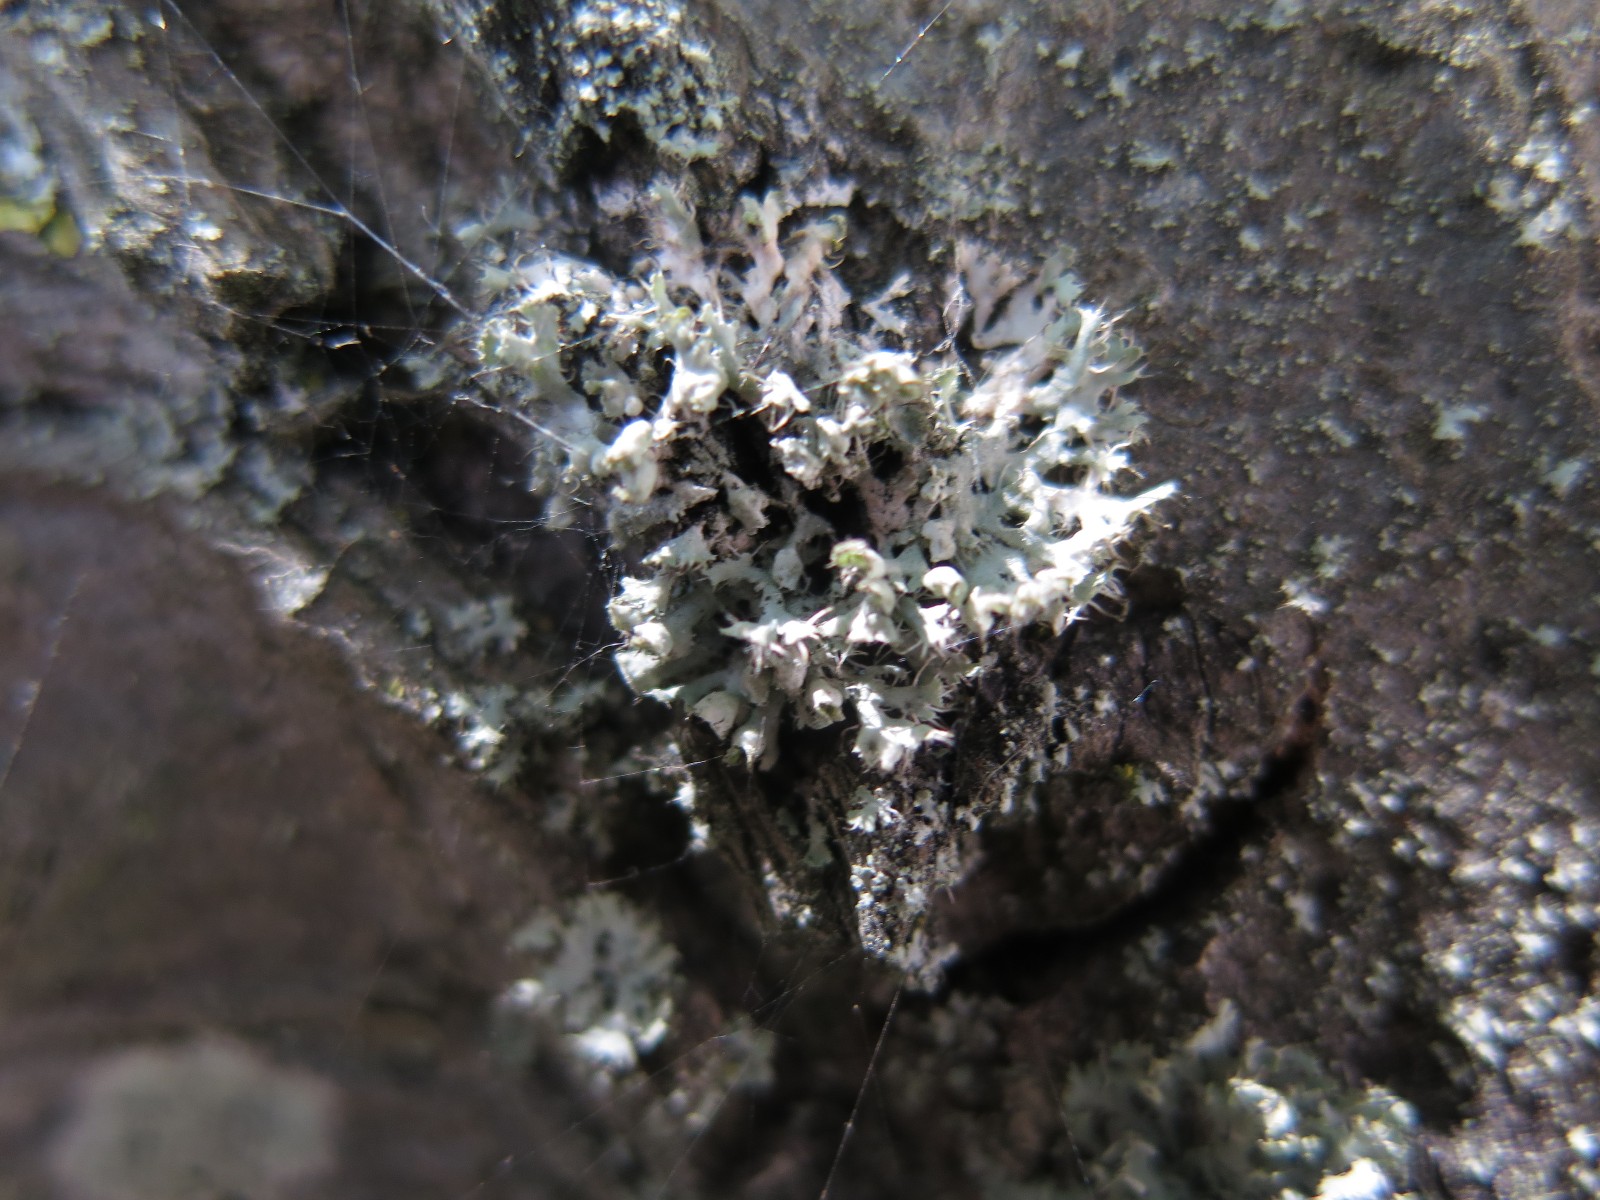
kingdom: Fungi
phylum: Ascomycota
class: Lecanoromycetes
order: Caliciales
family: Physciaceae
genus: Physcia
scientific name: Physcia tenella
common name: spæd rosetlav
